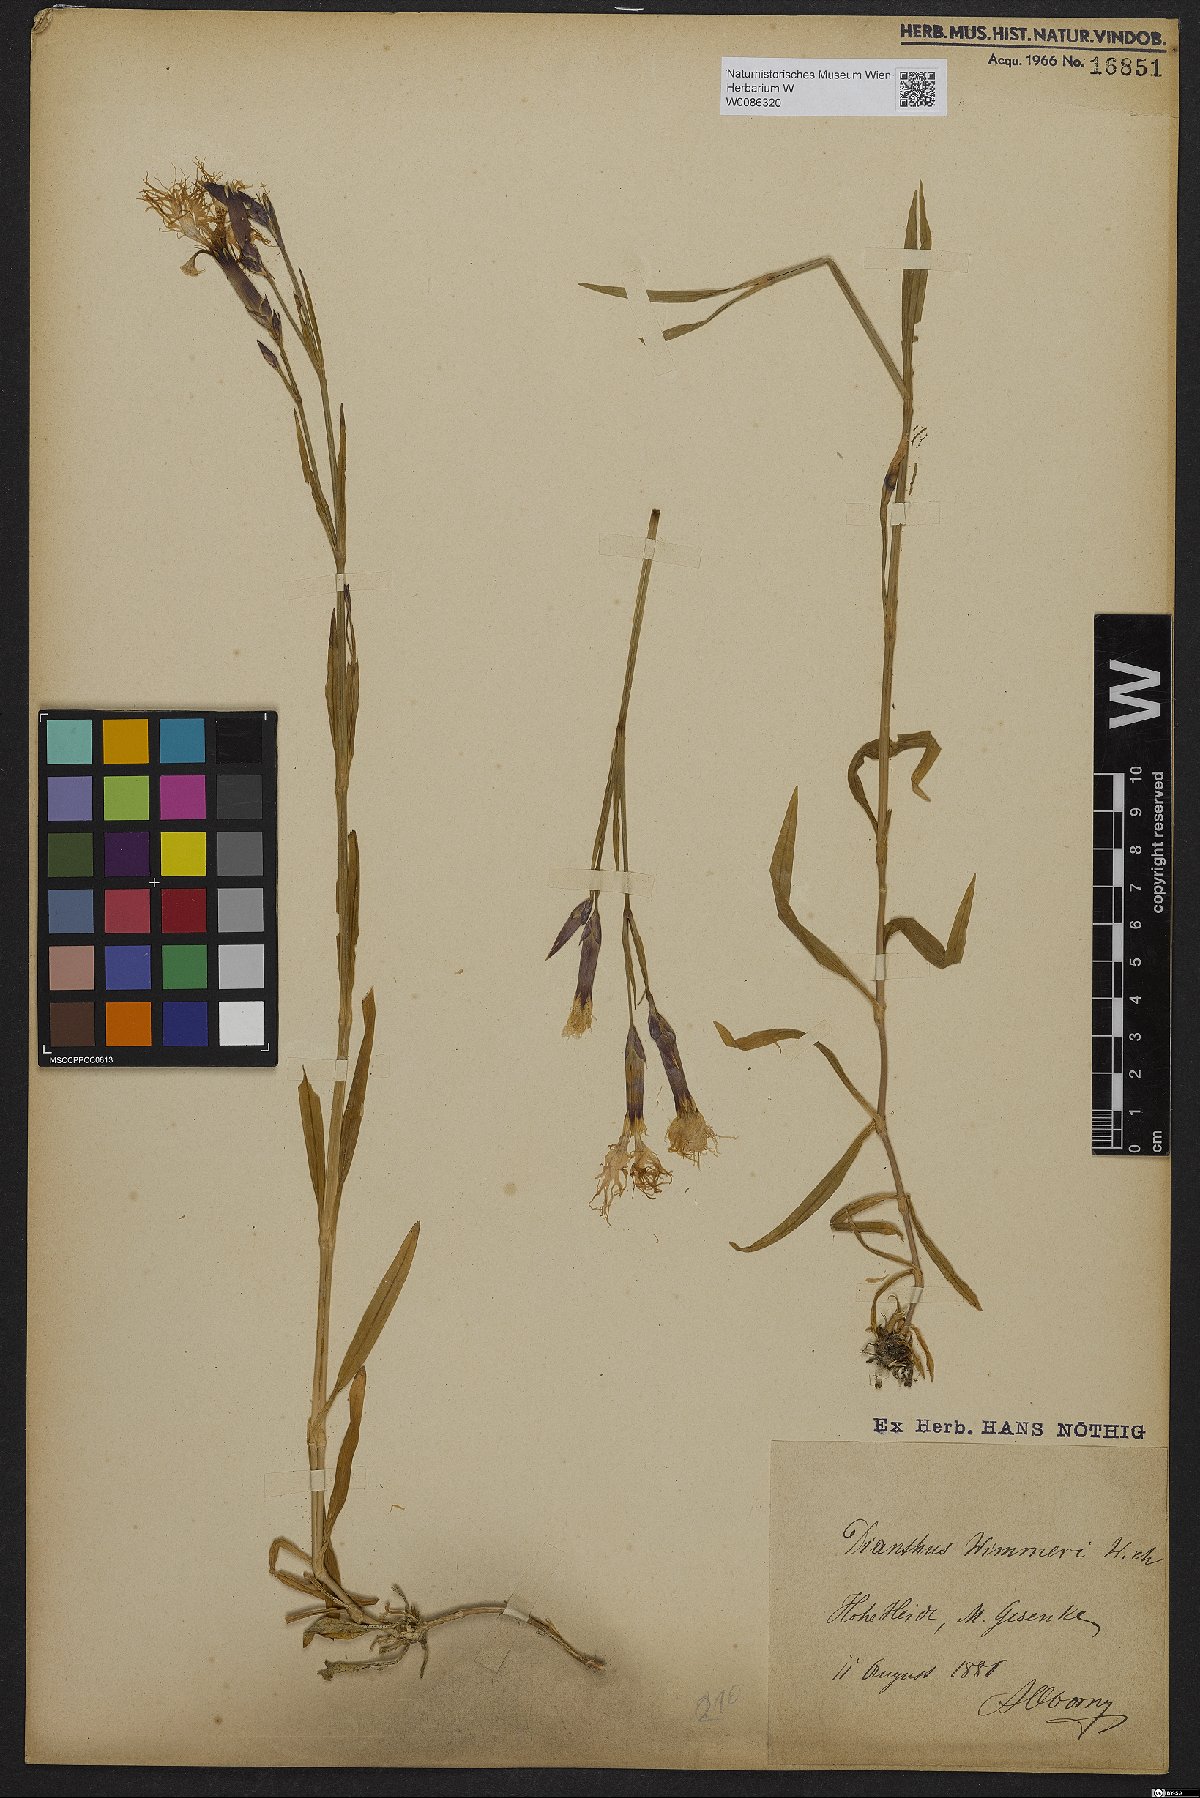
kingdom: Plantae
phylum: Tracheophyta
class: Magnoliopsida
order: Caryophyllales
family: Caryophyllaceae
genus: Dianthus
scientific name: Dianthus superbus
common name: Fringed pink
